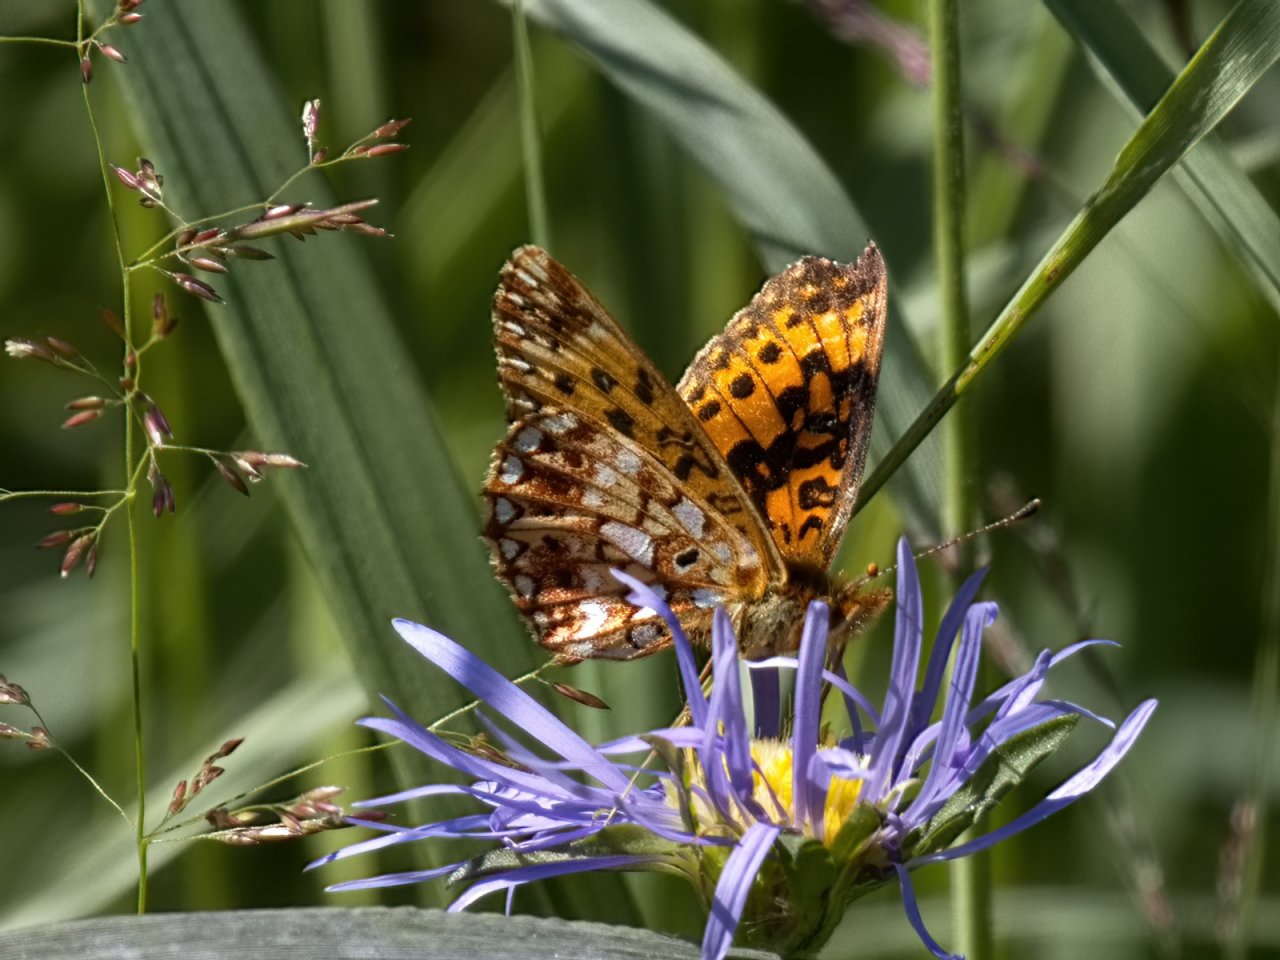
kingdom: Animalia
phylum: Arthropoda
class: Insecta
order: Lepidoptera
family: Nymphalidae
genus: Boloria
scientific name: Boloria selene
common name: Silver-bordered Fritillary
